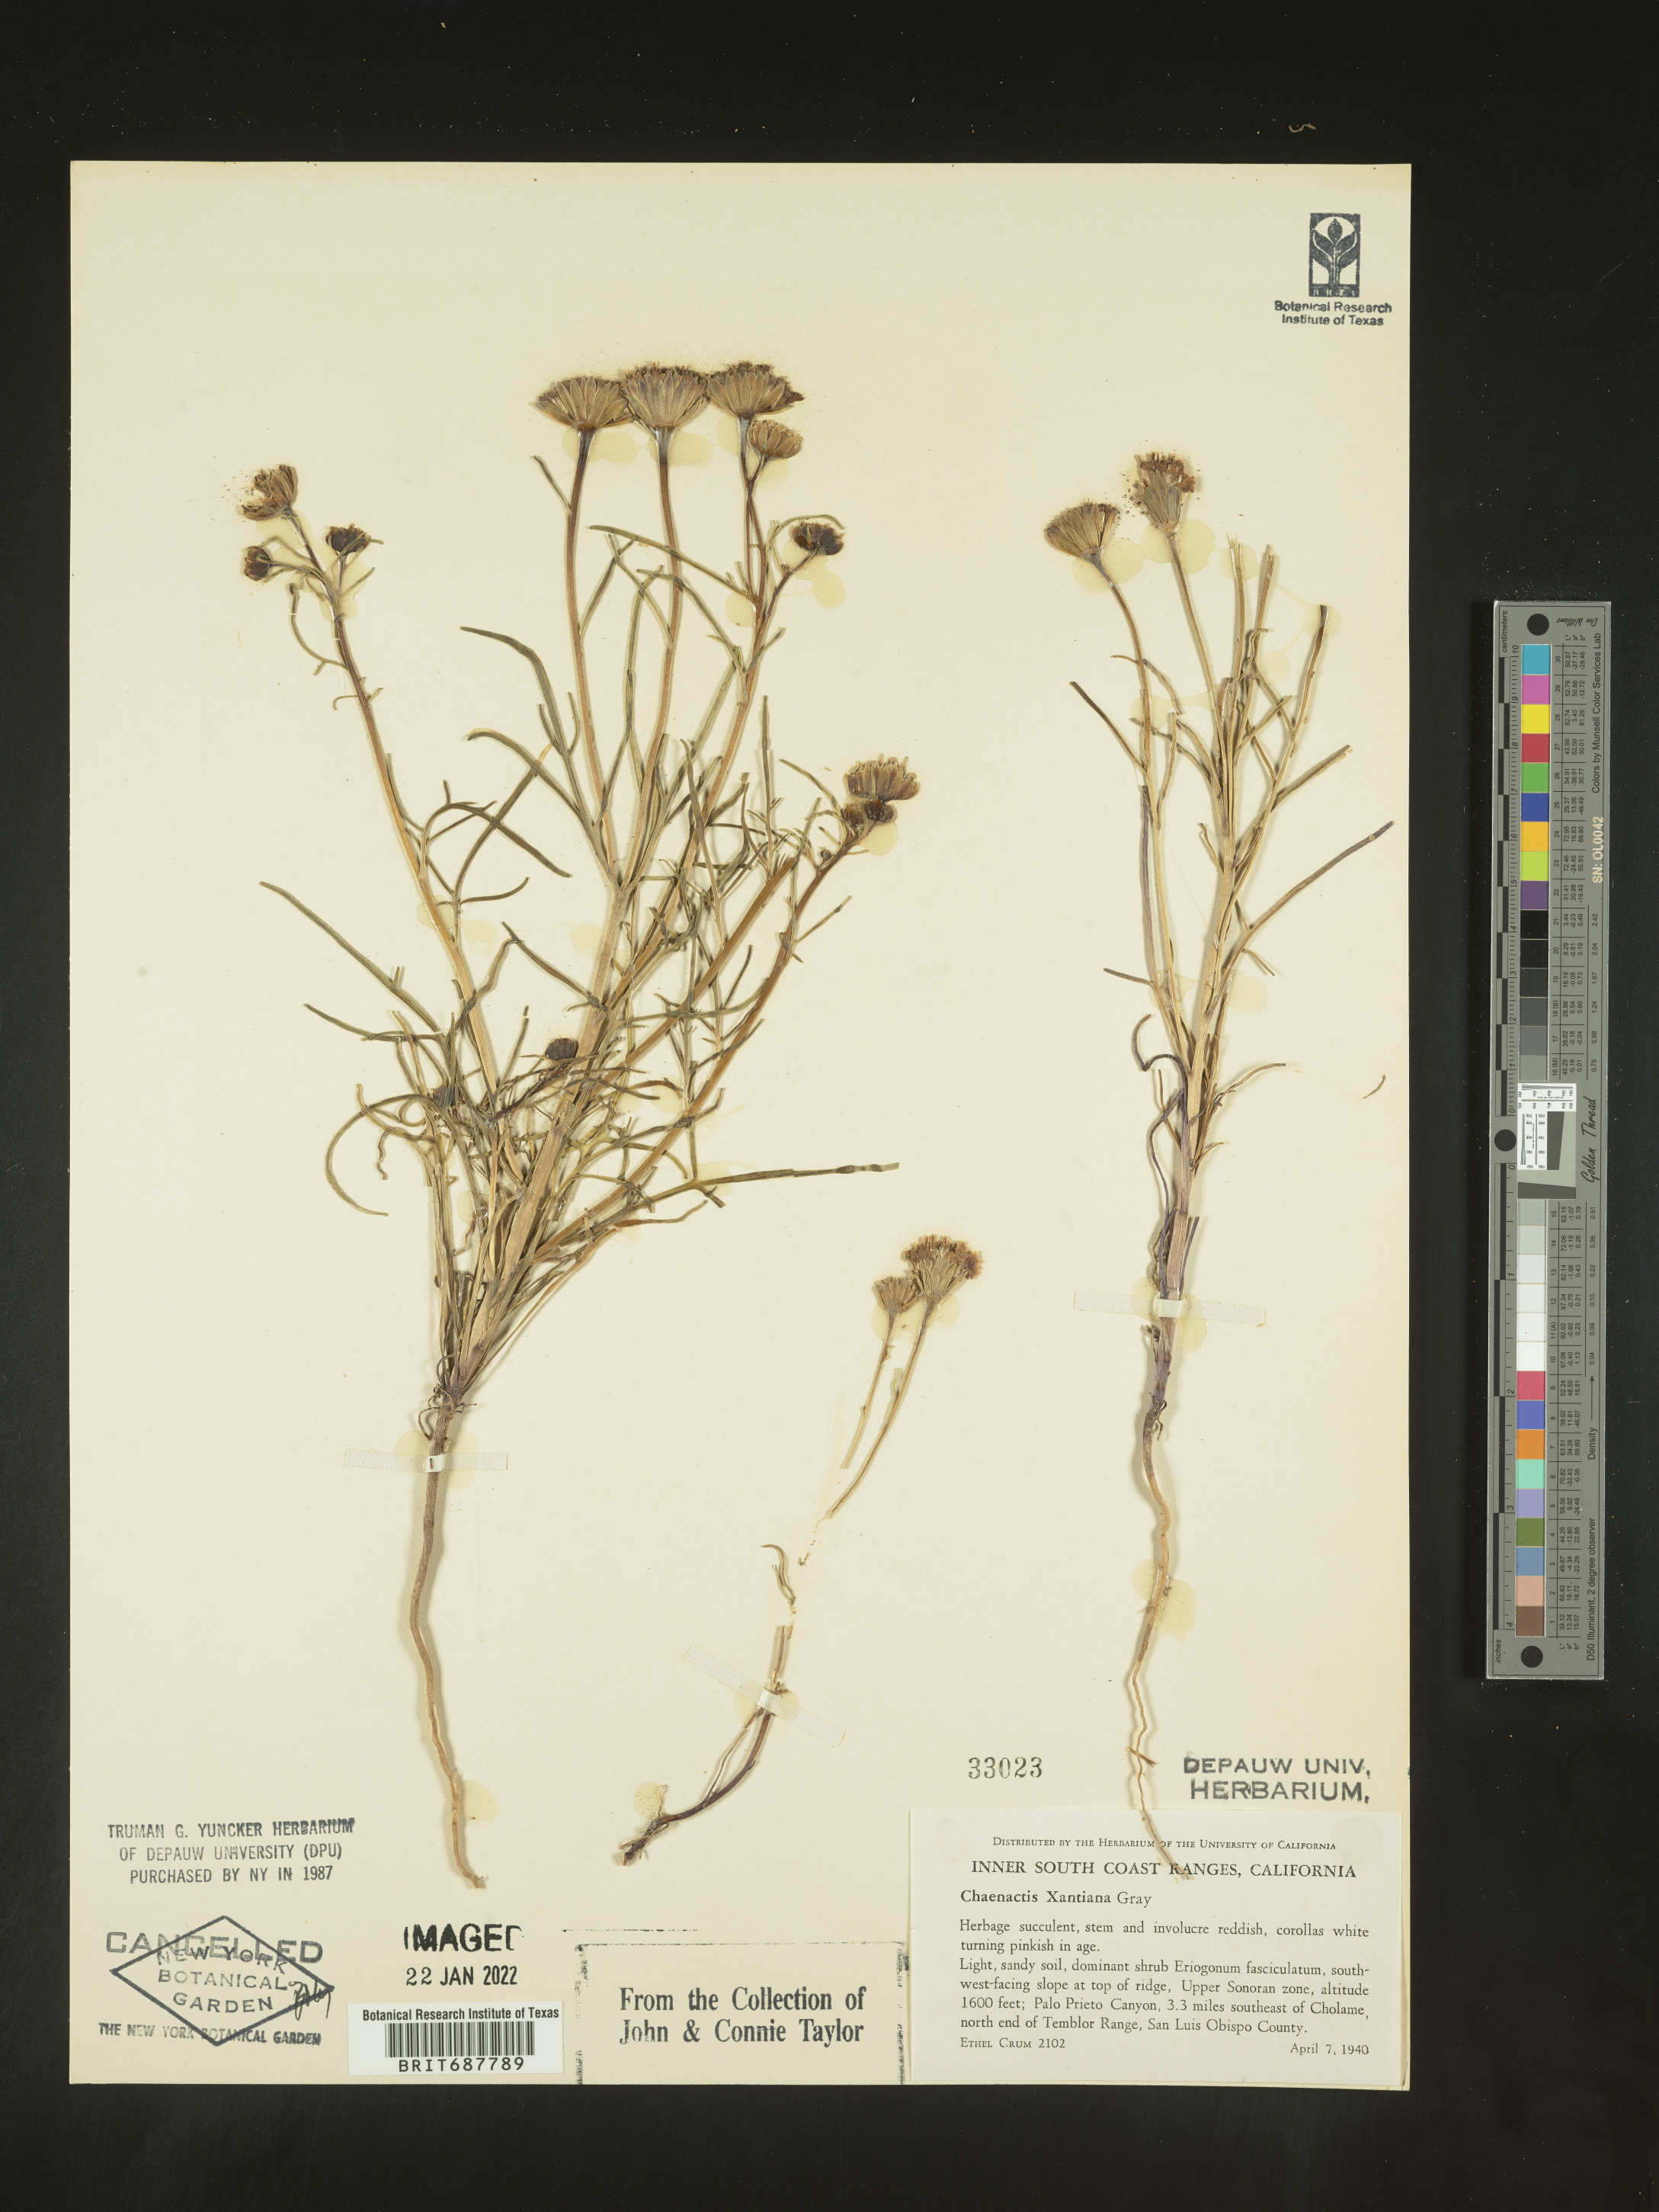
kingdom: Plantae
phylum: Tracheophyta
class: Magnoliopsida
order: Asterales
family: Asteraceae
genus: Chaenactis
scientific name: Chaenactis xantiana
